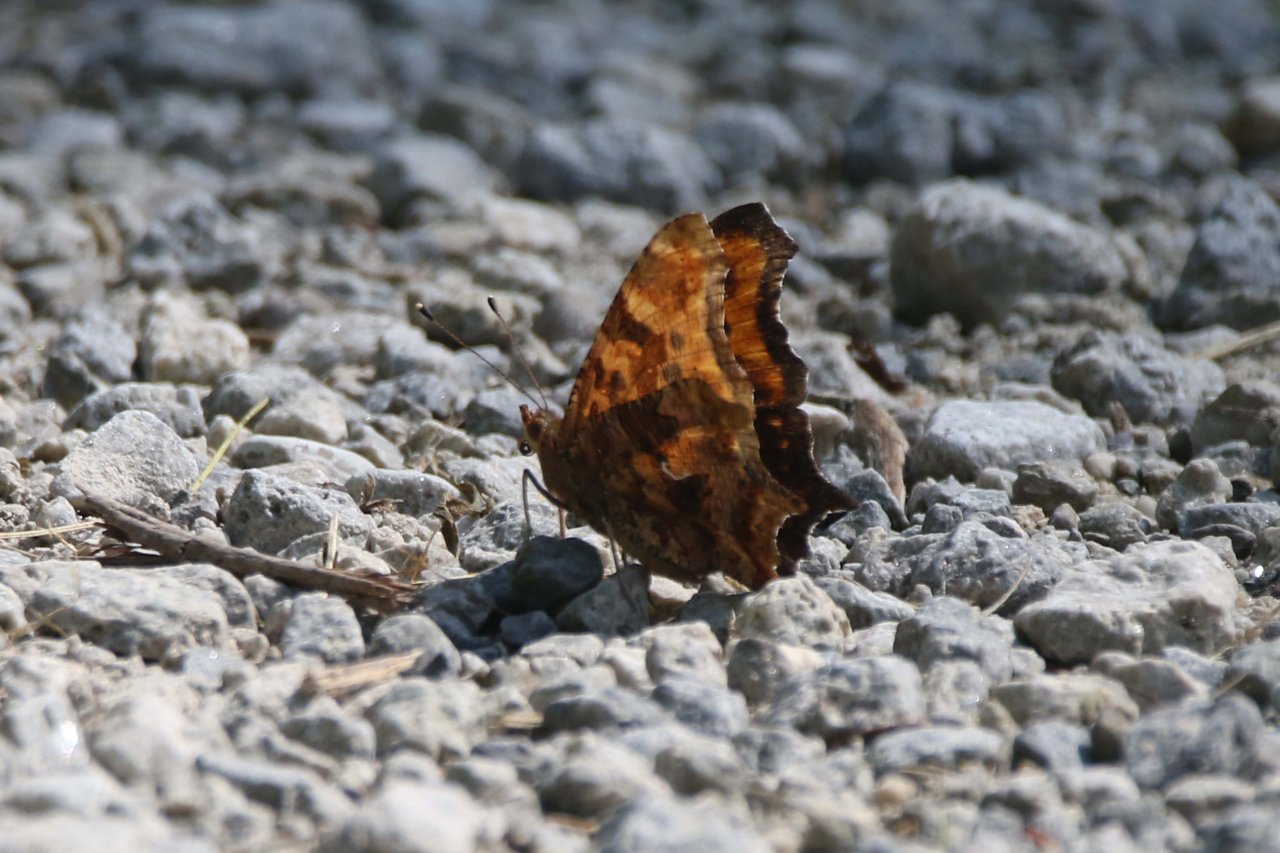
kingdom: Animalia
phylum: Arthropoda
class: Insecta
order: Lepidoptera
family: Nymphalidae
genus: Polygonia
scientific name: Polygonia comma
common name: Eastern Comma
